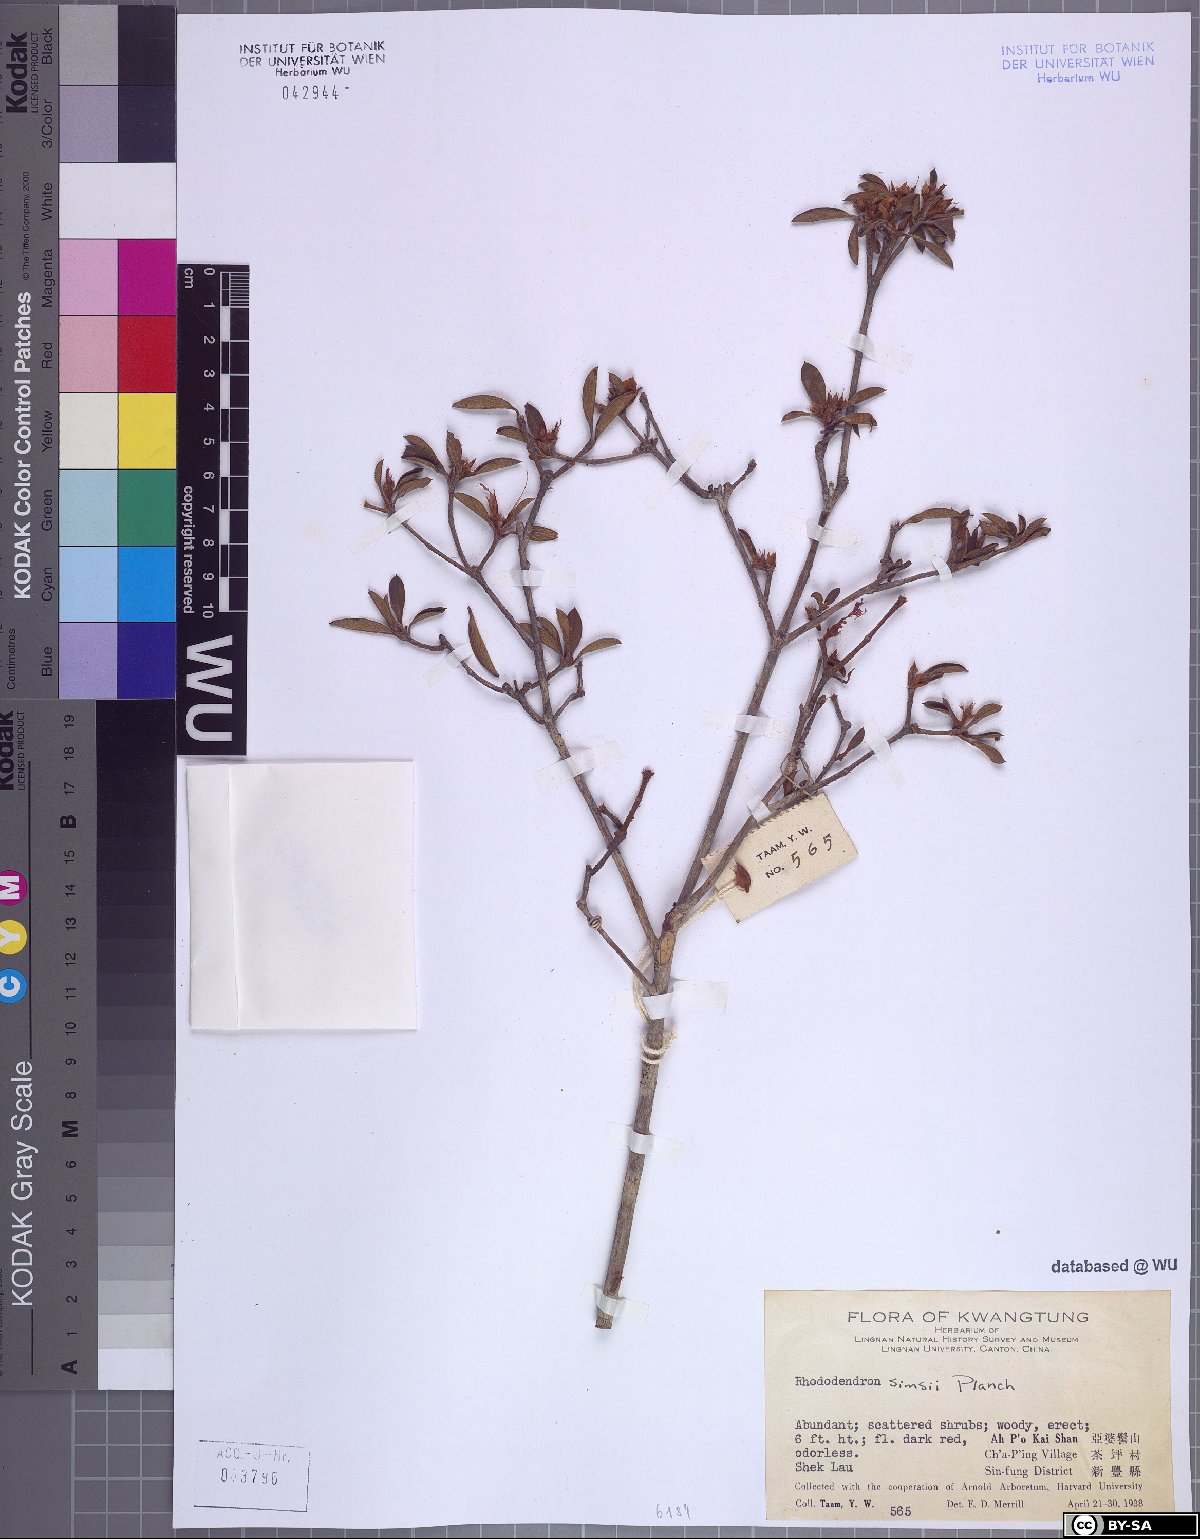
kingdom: Plantae
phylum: Tracheophyta
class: Magnoliopsida
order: Ericales
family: Ericaceae
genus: Rhododendron
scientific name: Rhododendron simsii
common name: Rhododendron
